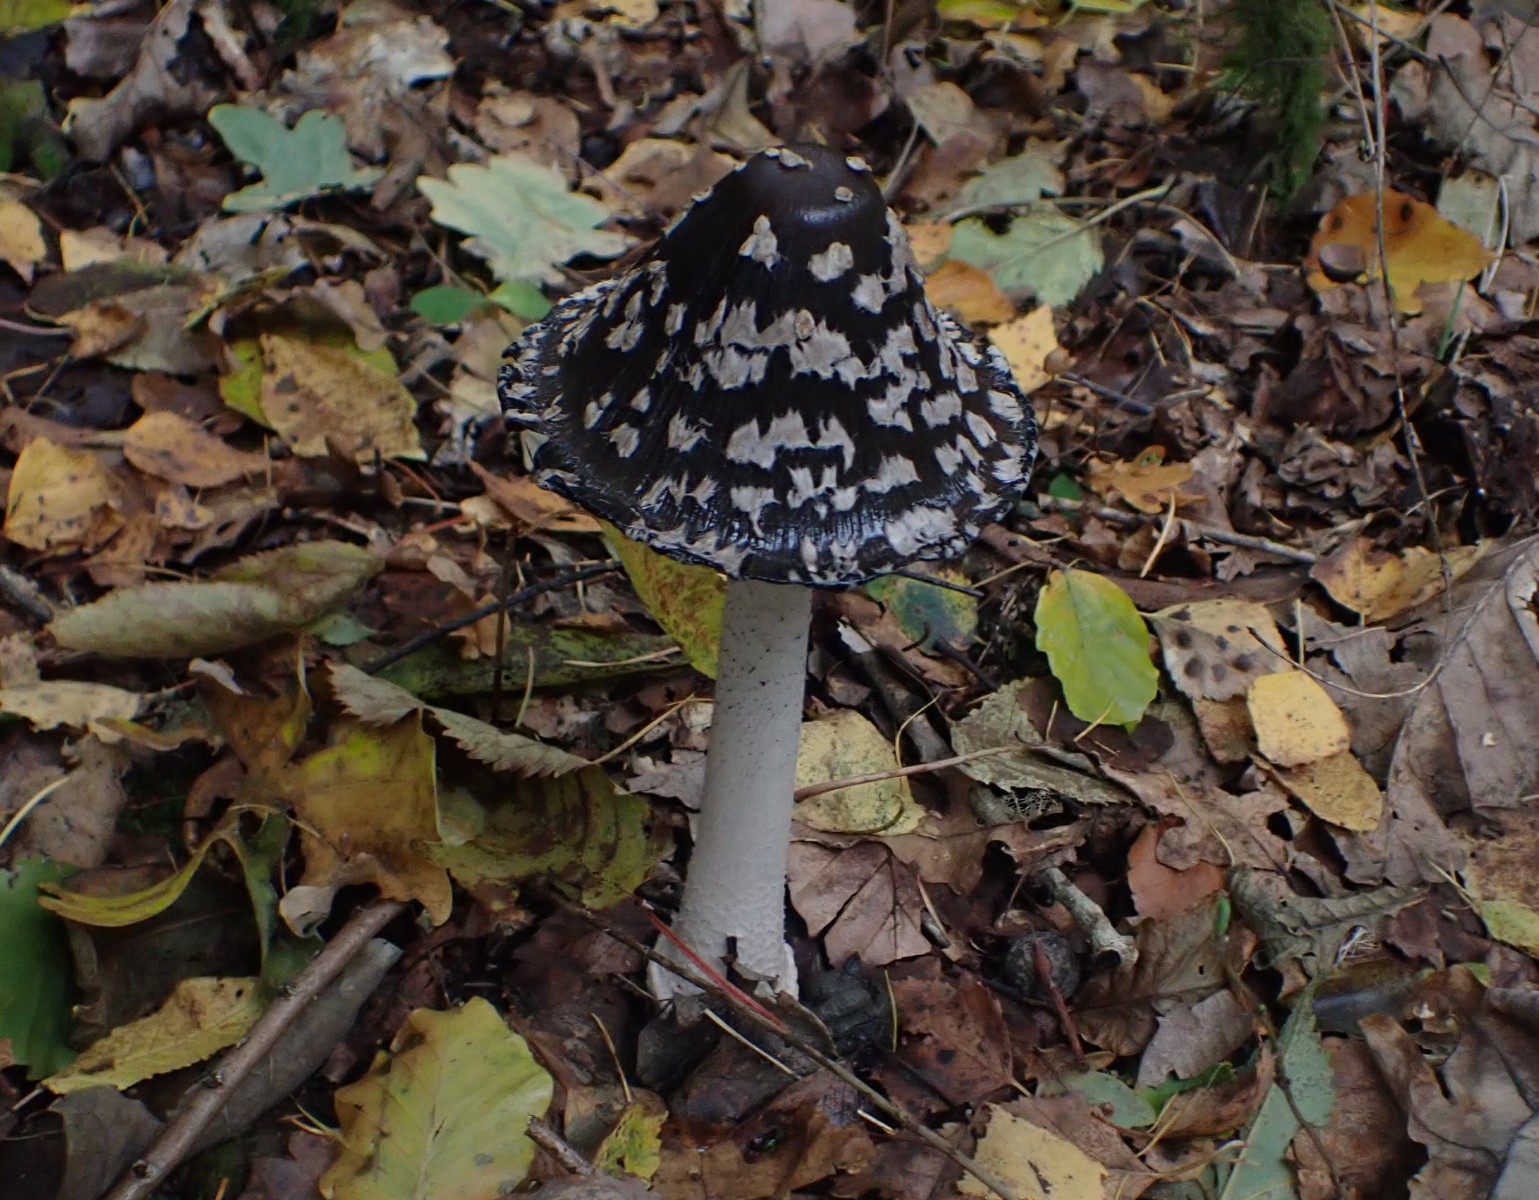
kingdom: Fungi
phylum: Basidiomycota
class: Agaricomycetes
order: Agaricales
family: Psathyrellaceae
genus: Coprinopsis
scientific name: Coprinopsis picacea
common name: skade-blækhat
